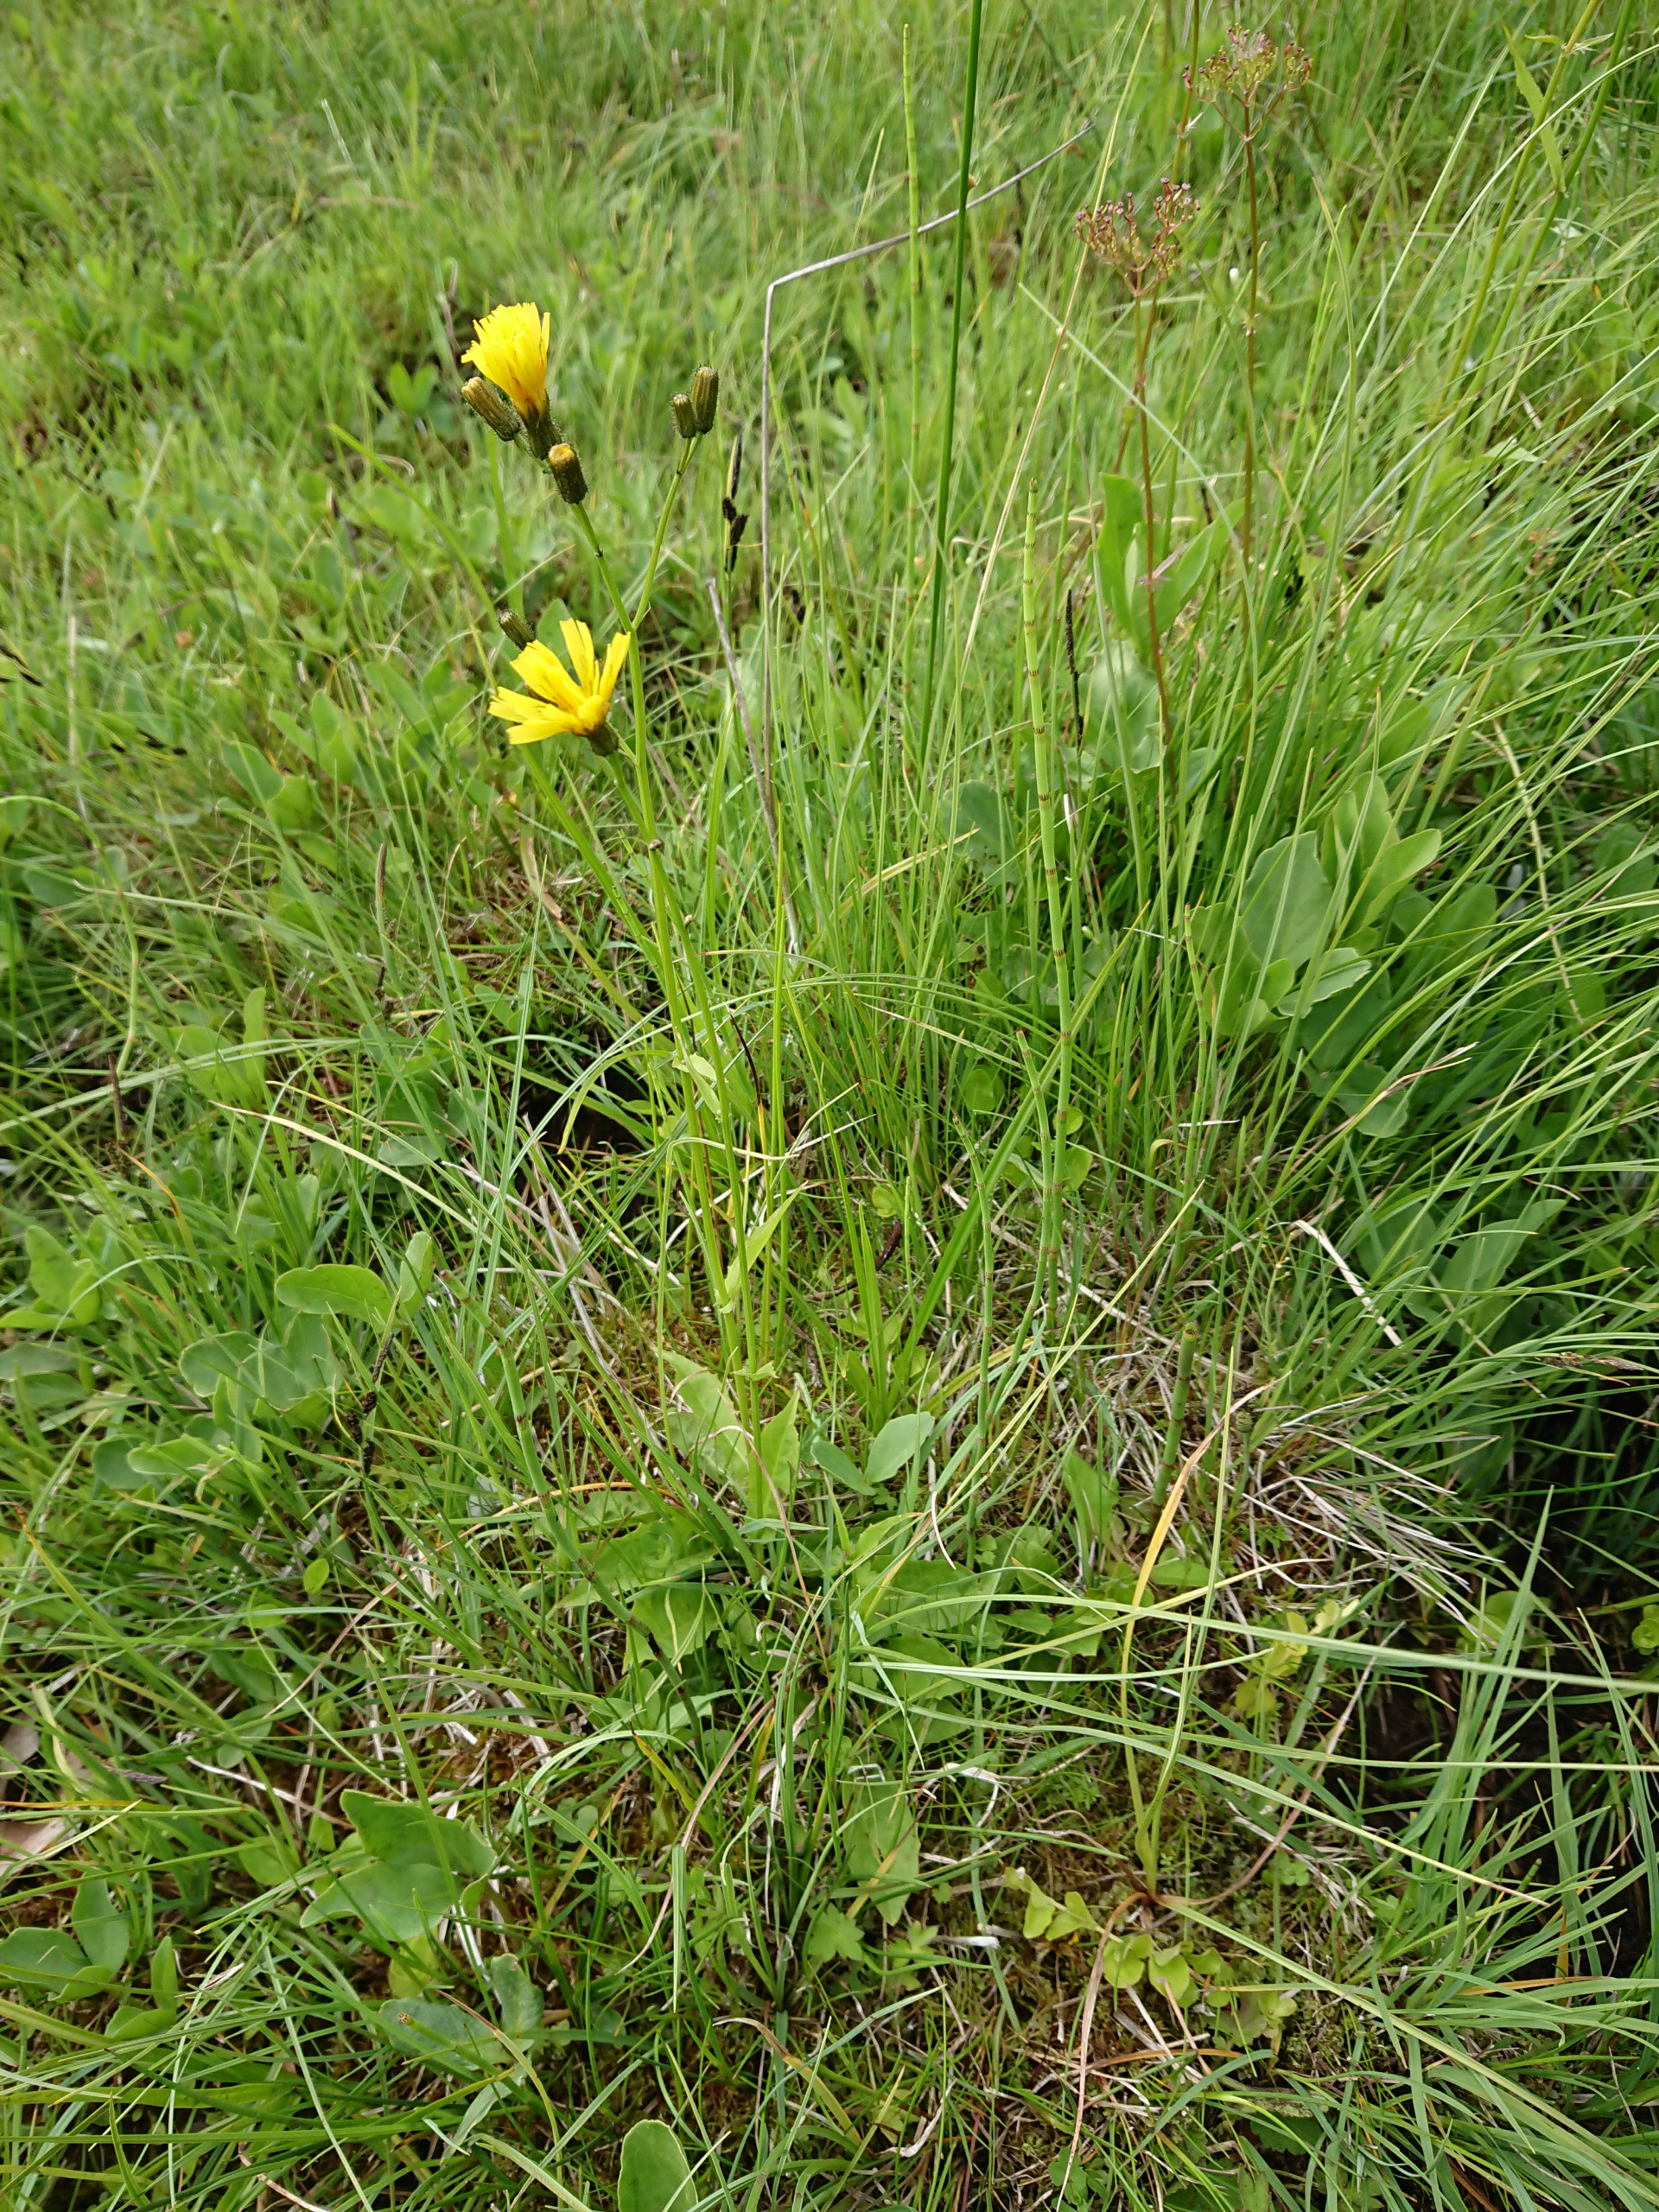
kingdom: Plantae
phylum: Tracheophyta
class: Magnoliopsida
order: Asterales
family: Asteraceae
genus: Crepis
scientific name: Crepis paludosa
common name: Kær-høgeskæg
